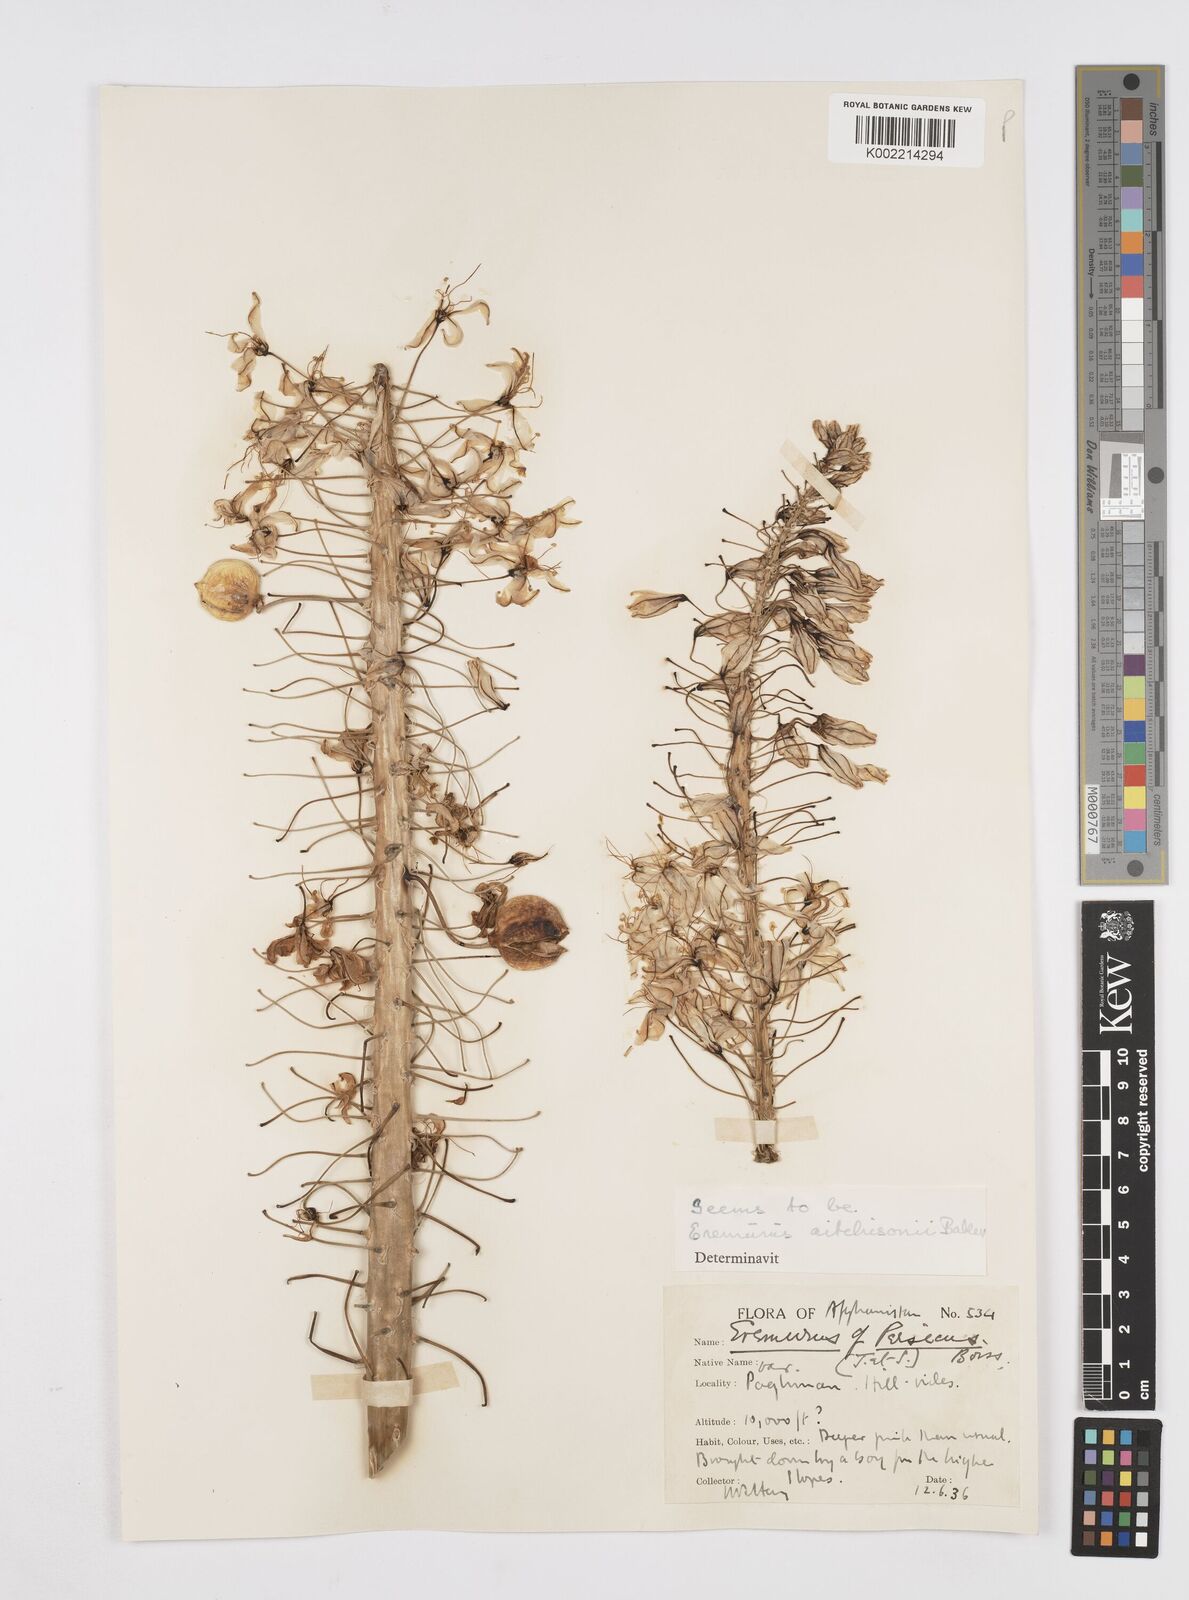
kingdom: Plantae
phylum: Tracheophyta
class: Liliopsida
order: Asparagales
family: Asphodelaceae
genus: Eremurus
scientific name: Eremurus aitchisonii
